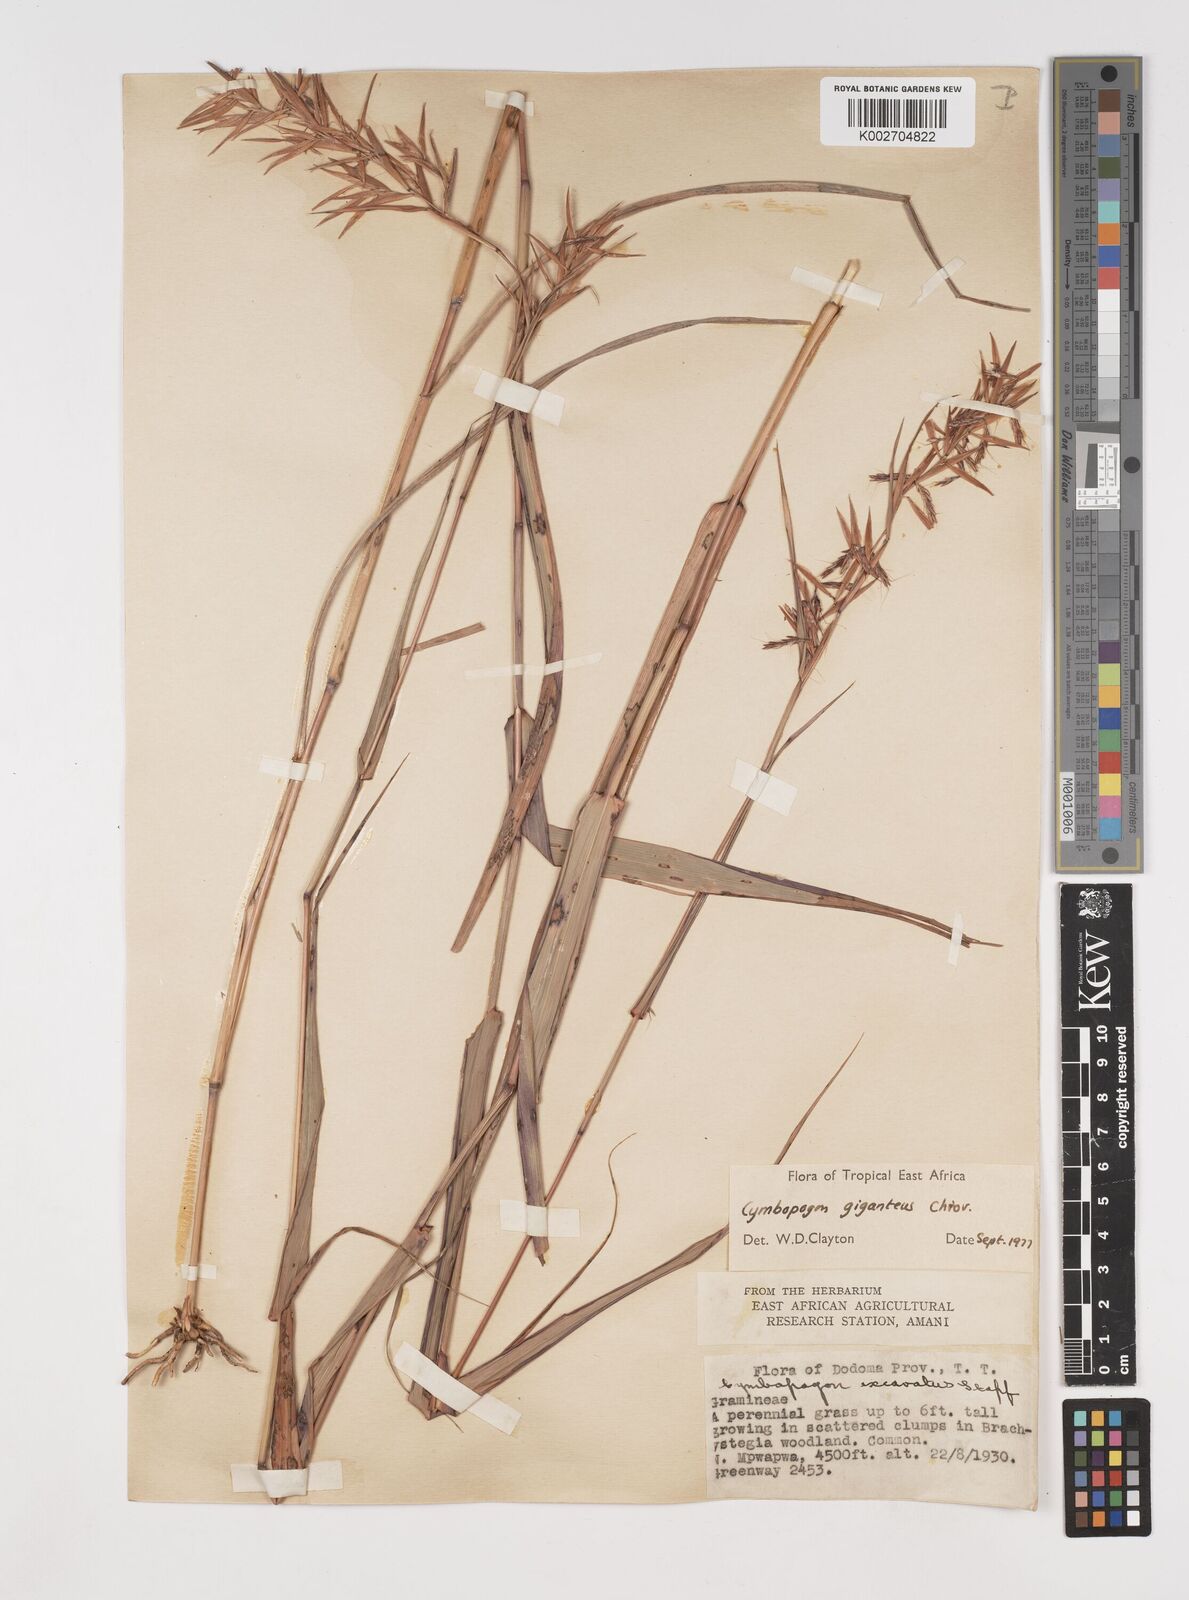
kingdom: Plantae
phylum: Tracheophyta
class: Liliopsida
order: Poales
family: Poaceae
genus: Cymbopogon
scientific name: Cymbopogon giganteus
